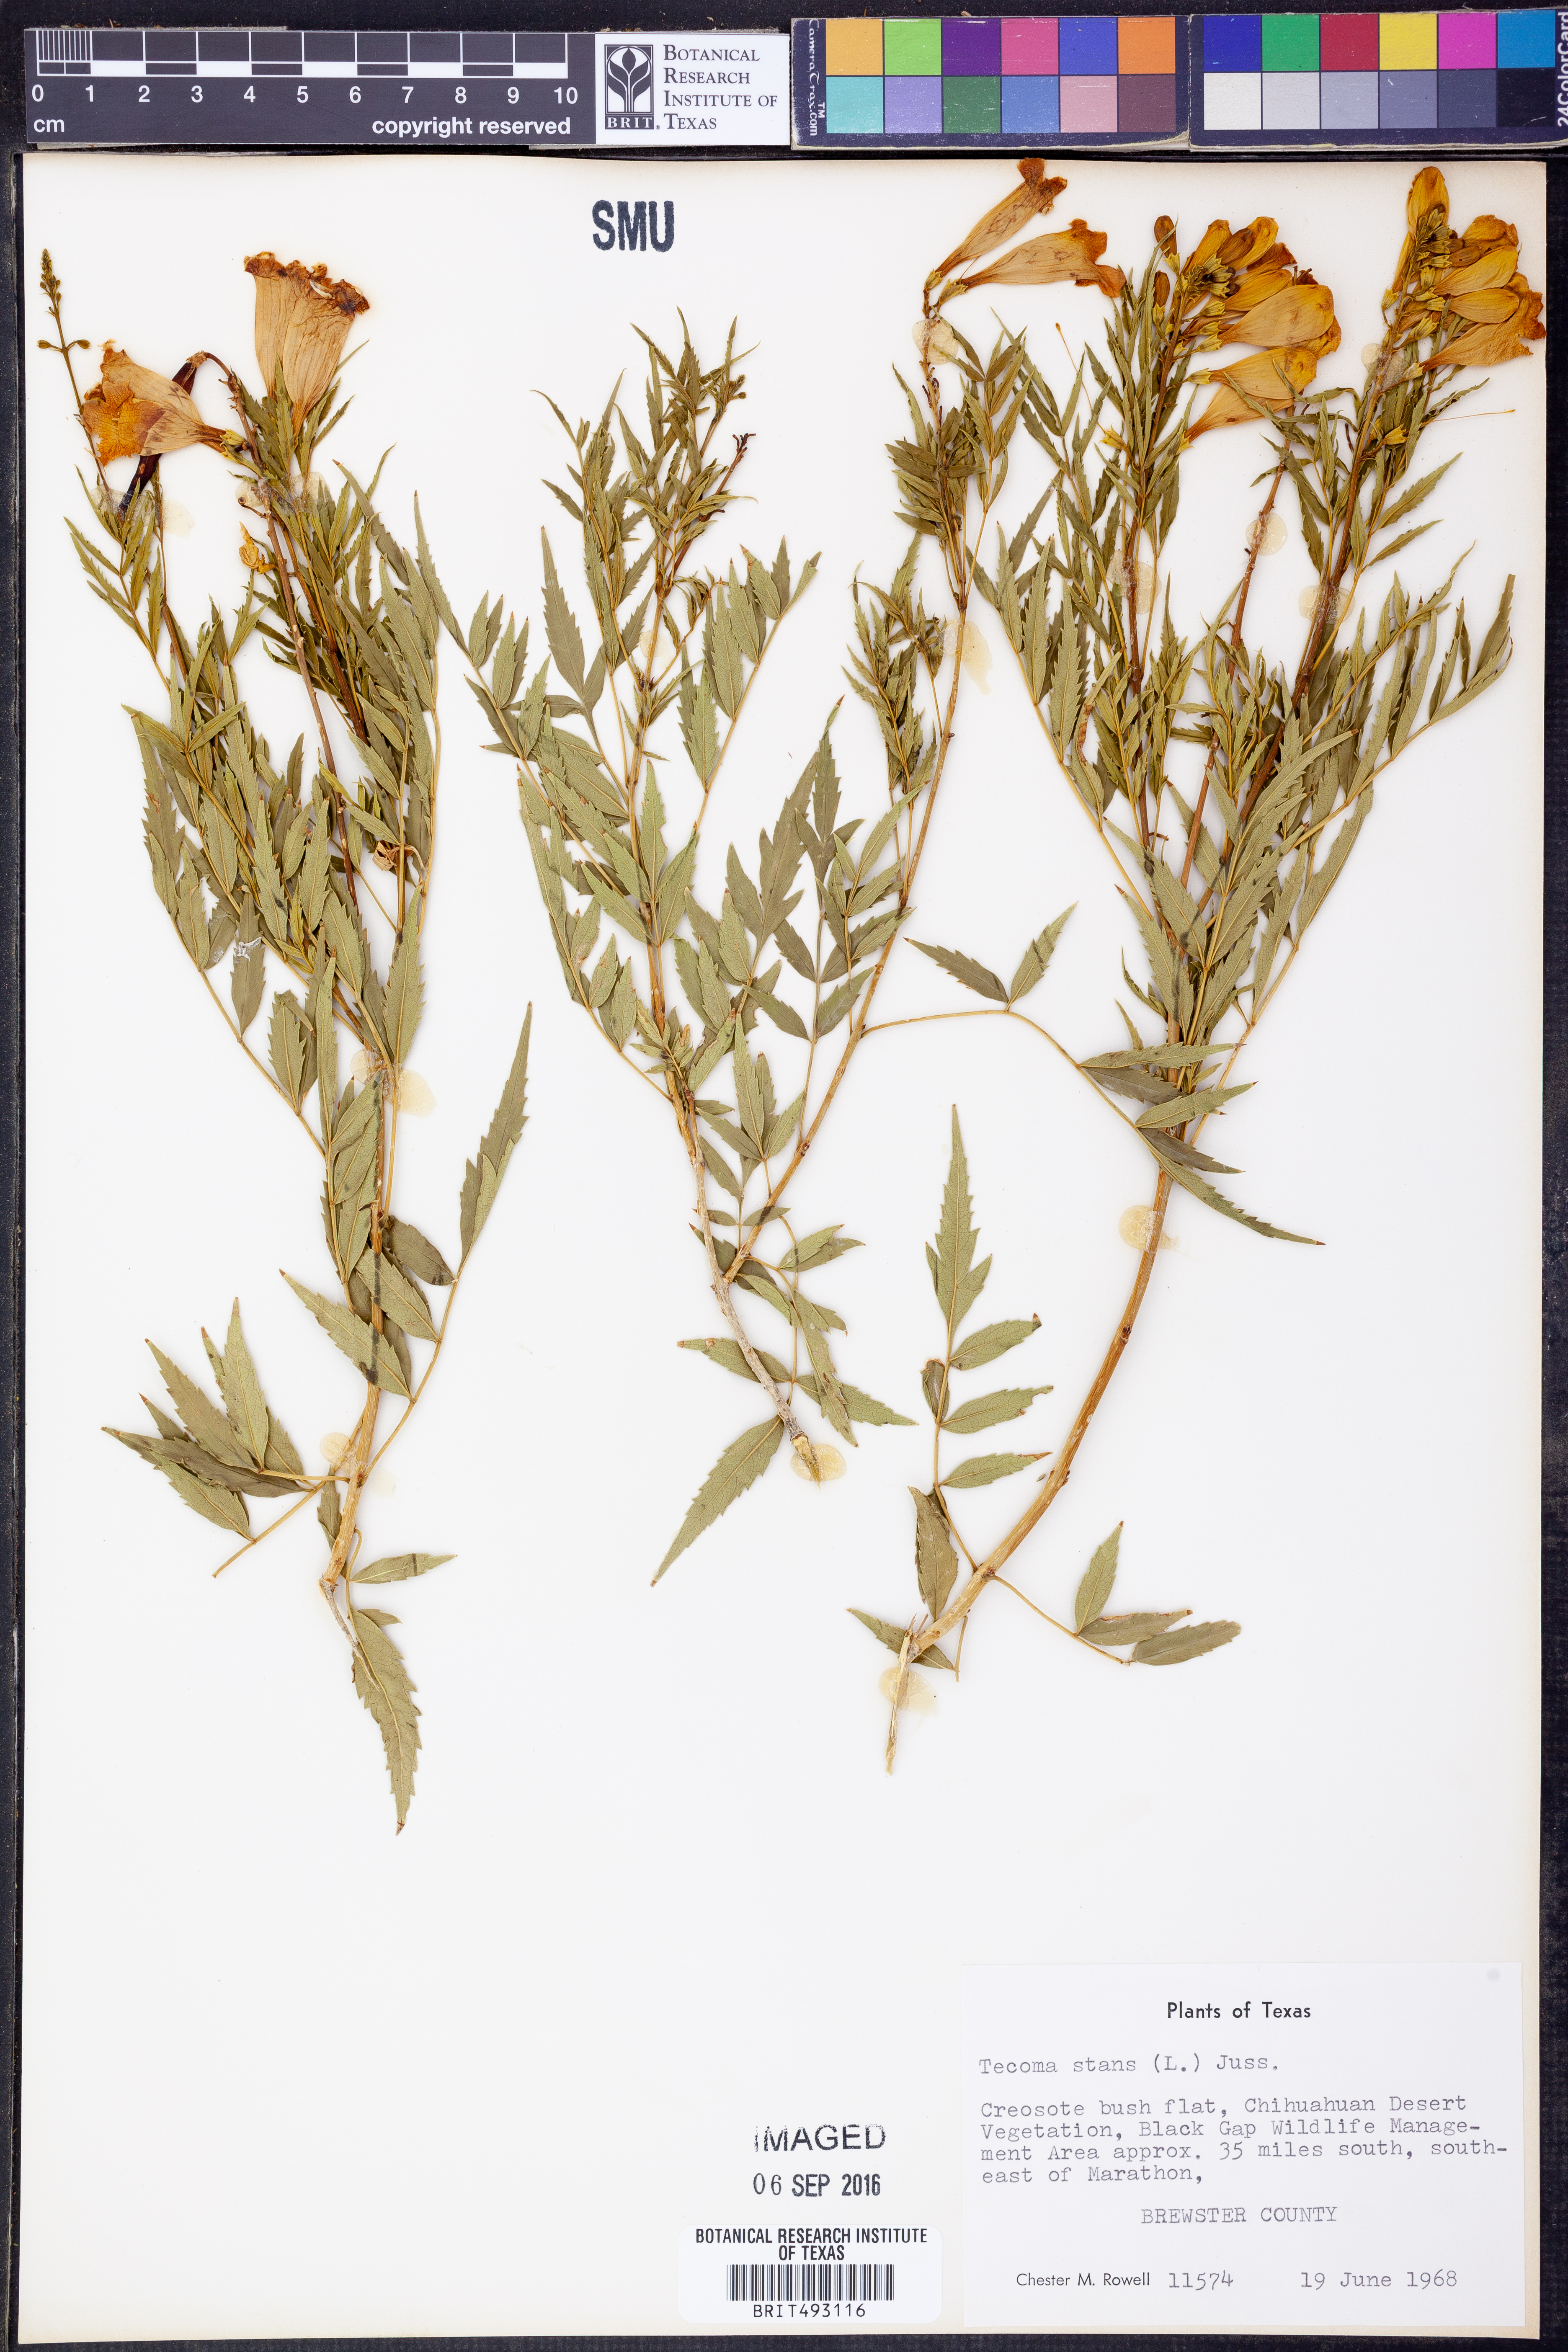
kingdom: Plantae
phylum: Tracheophyta
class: Magnoliopsida
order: Lamiales
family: Bignoniaceae
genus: Tecoma
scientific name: Tecoma stans
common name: Yellow trumpetbush
